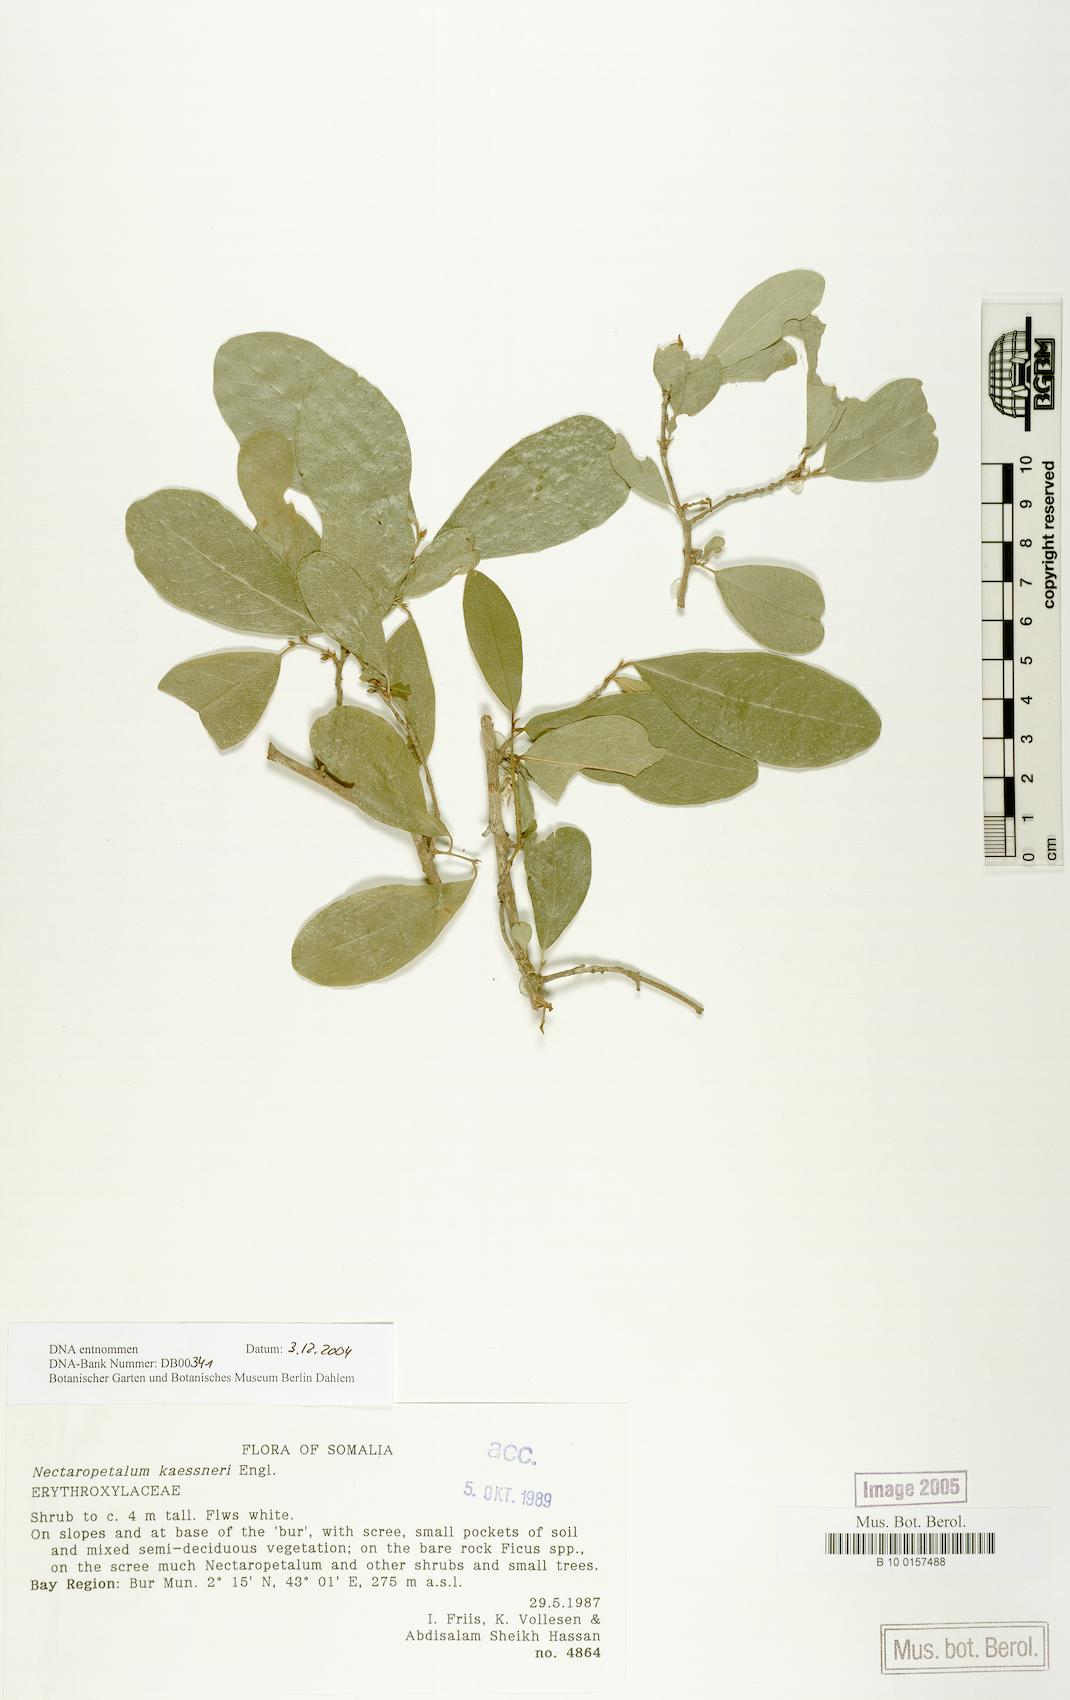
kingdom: Plantae
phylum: Tracheophyta
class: Magnoliopsida
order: Malpighiales
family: Erythroxylaceae
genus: Nectaropetalum
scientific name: Nectaropetalum kaessneri
